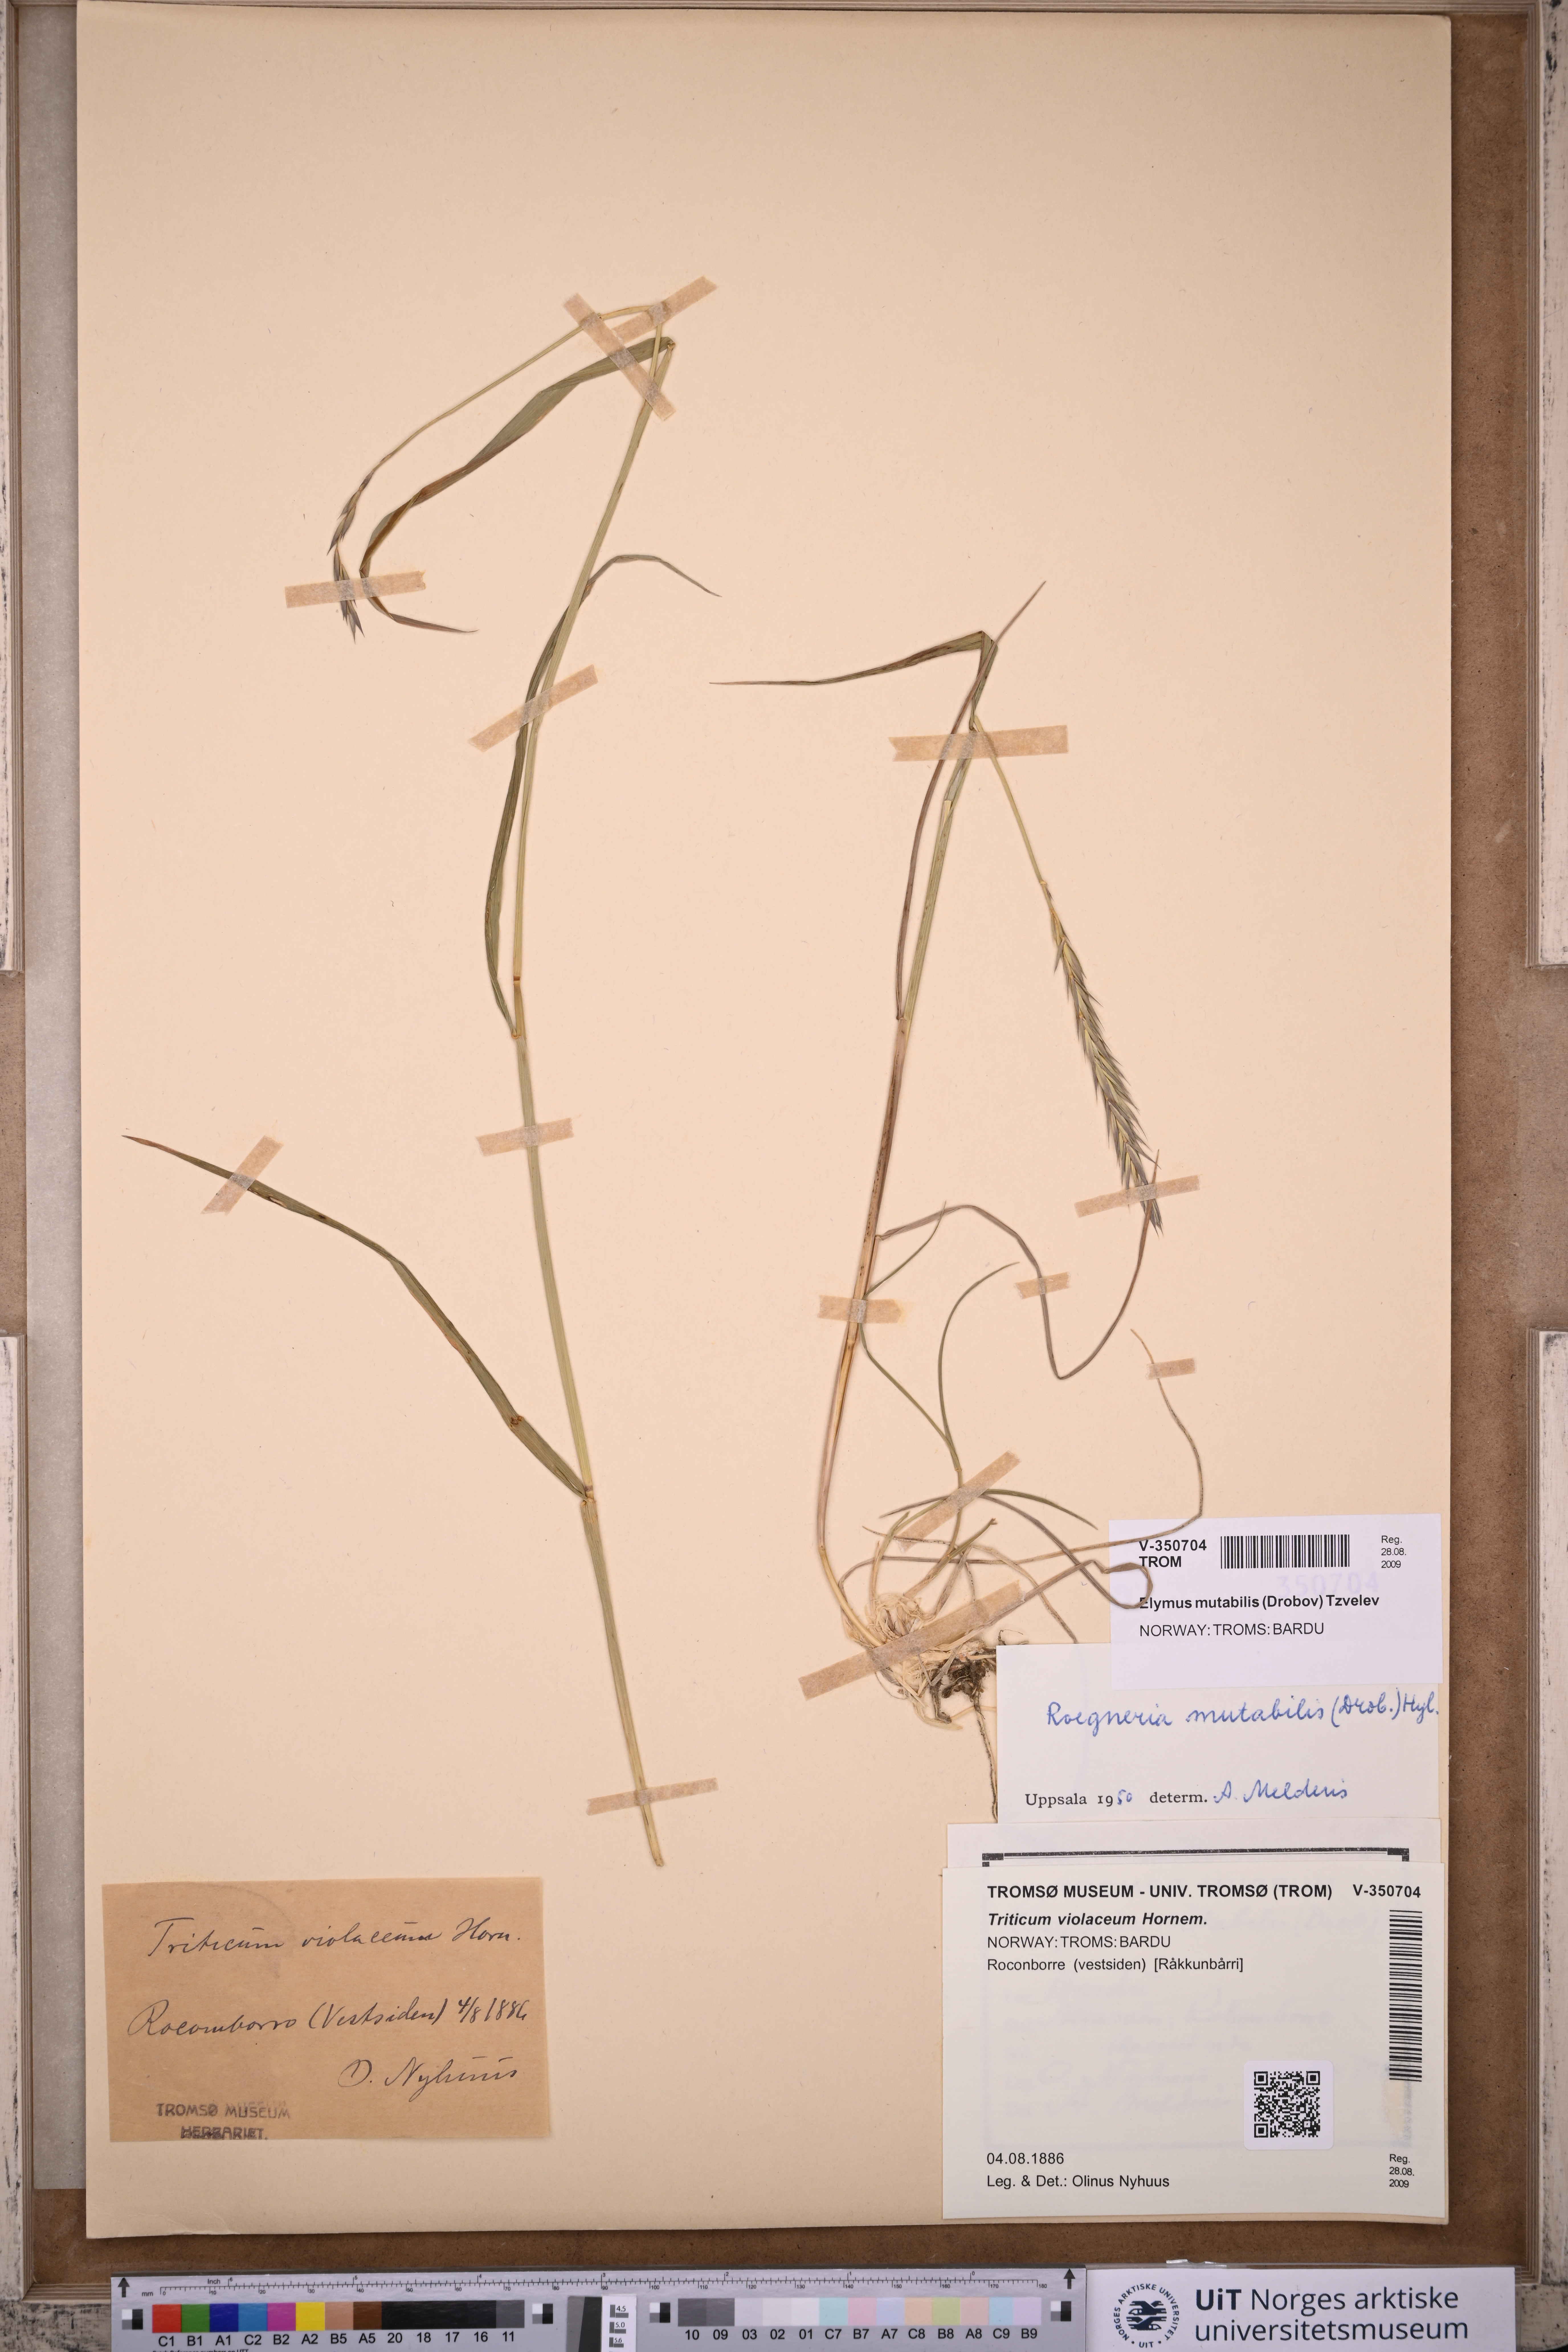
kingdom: Plantae
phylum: Tracheophyta
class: Liliopsida
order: Poales
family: Poaceae
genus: Elymus
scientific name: Elymus mutabilis
